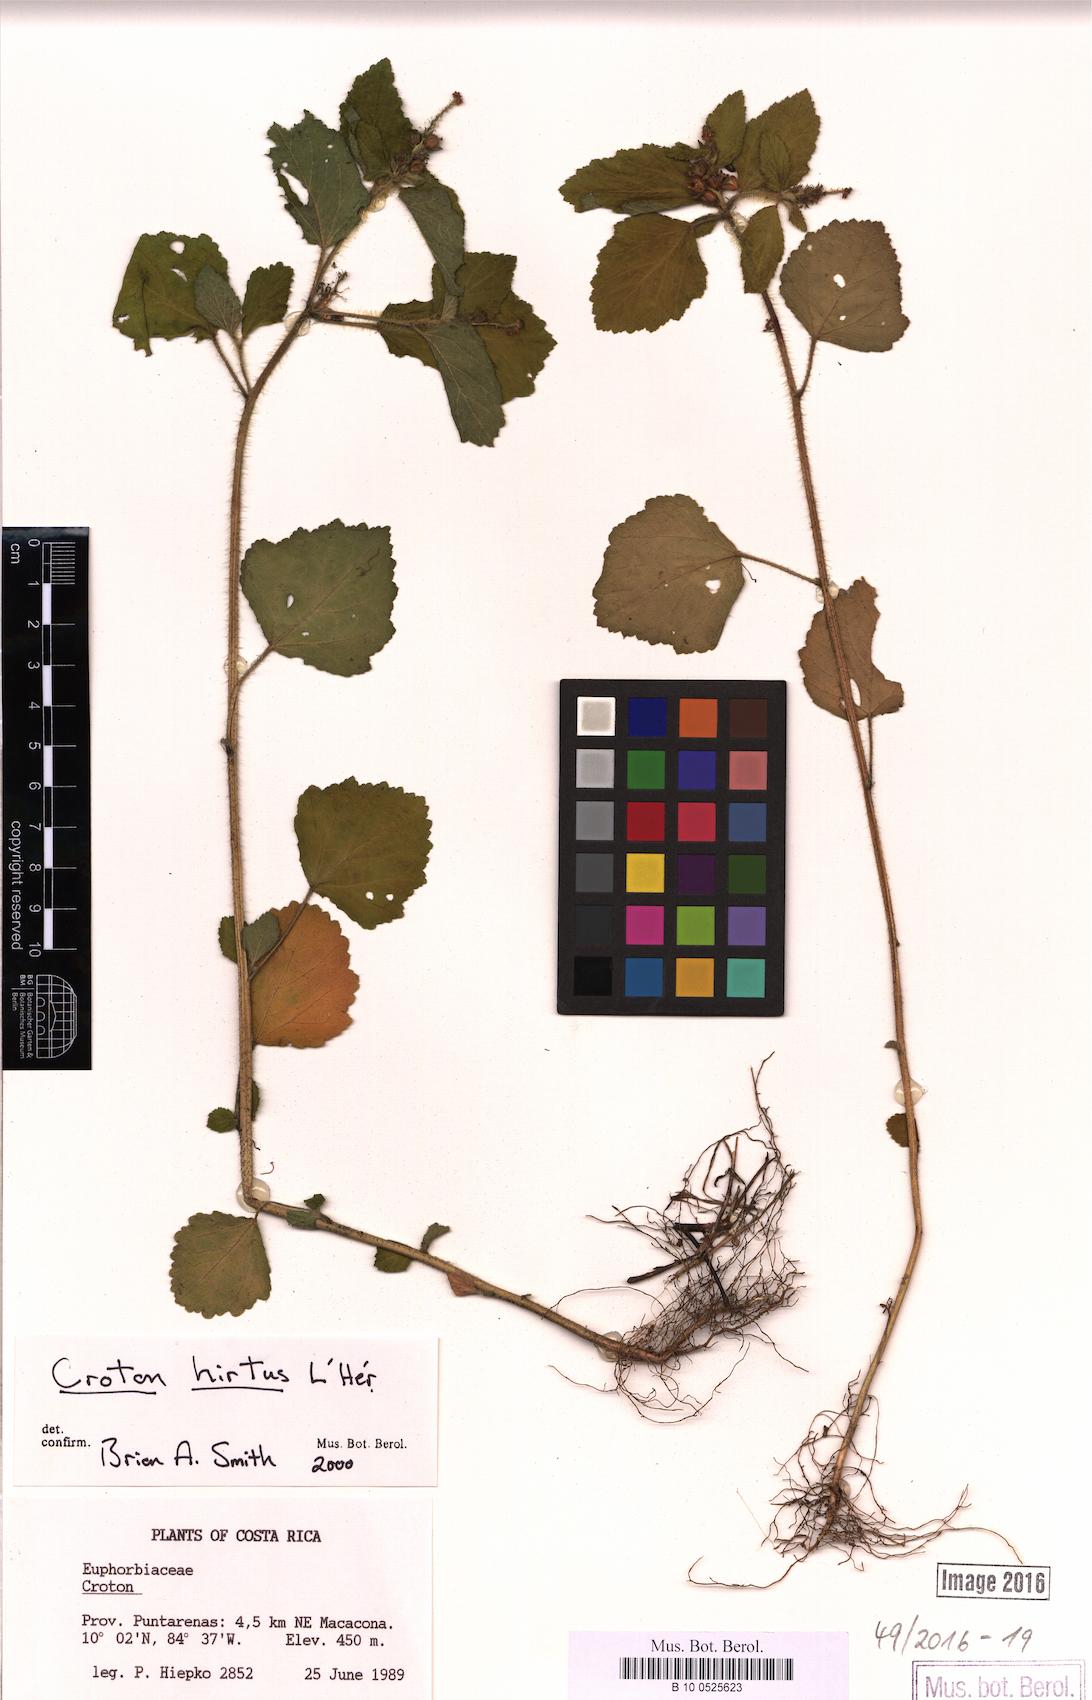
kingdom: Plantae
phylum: Tracheophyta
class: Magnoliopsida
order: Malpighiales
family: Euphorbiaceae
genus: Croton
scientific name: Croton hirtus
